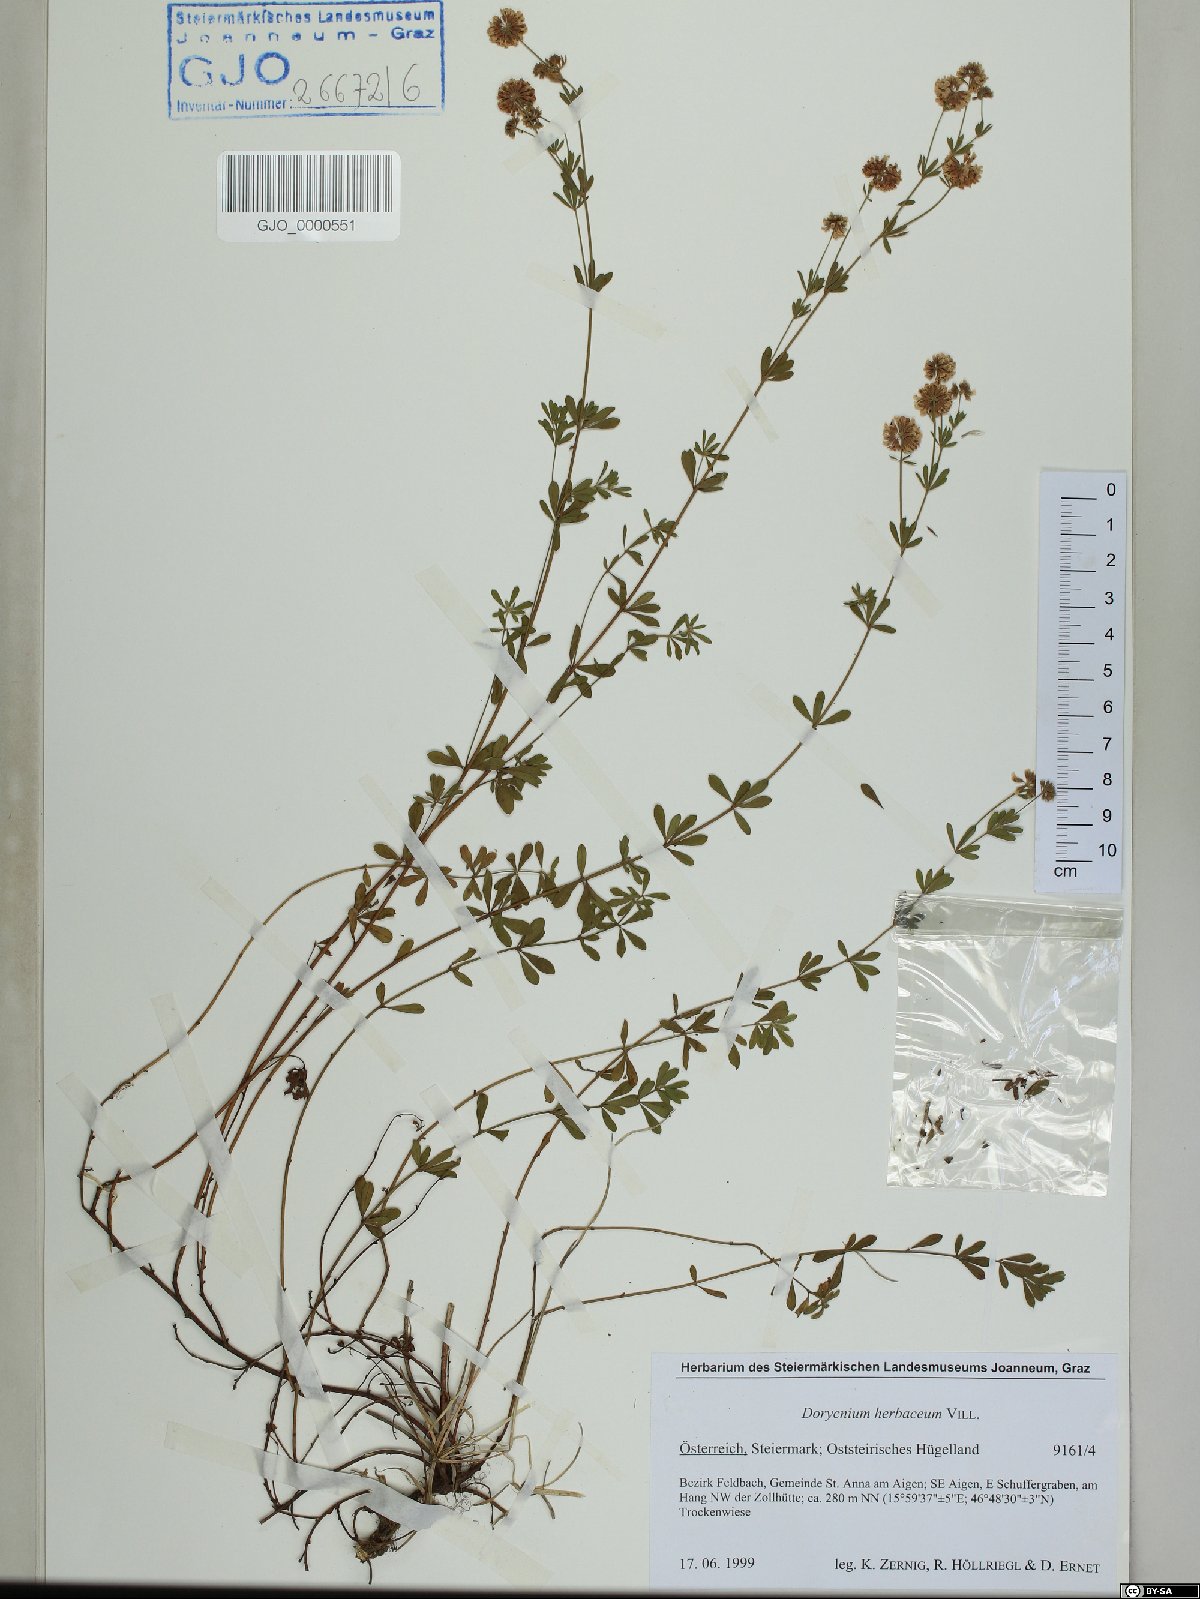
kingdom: Plantae
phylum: Tracheophyta
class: Magnoliopsida
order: Fabales
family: Fabaceae
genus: Lotus
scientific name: Lotus herbaceus
